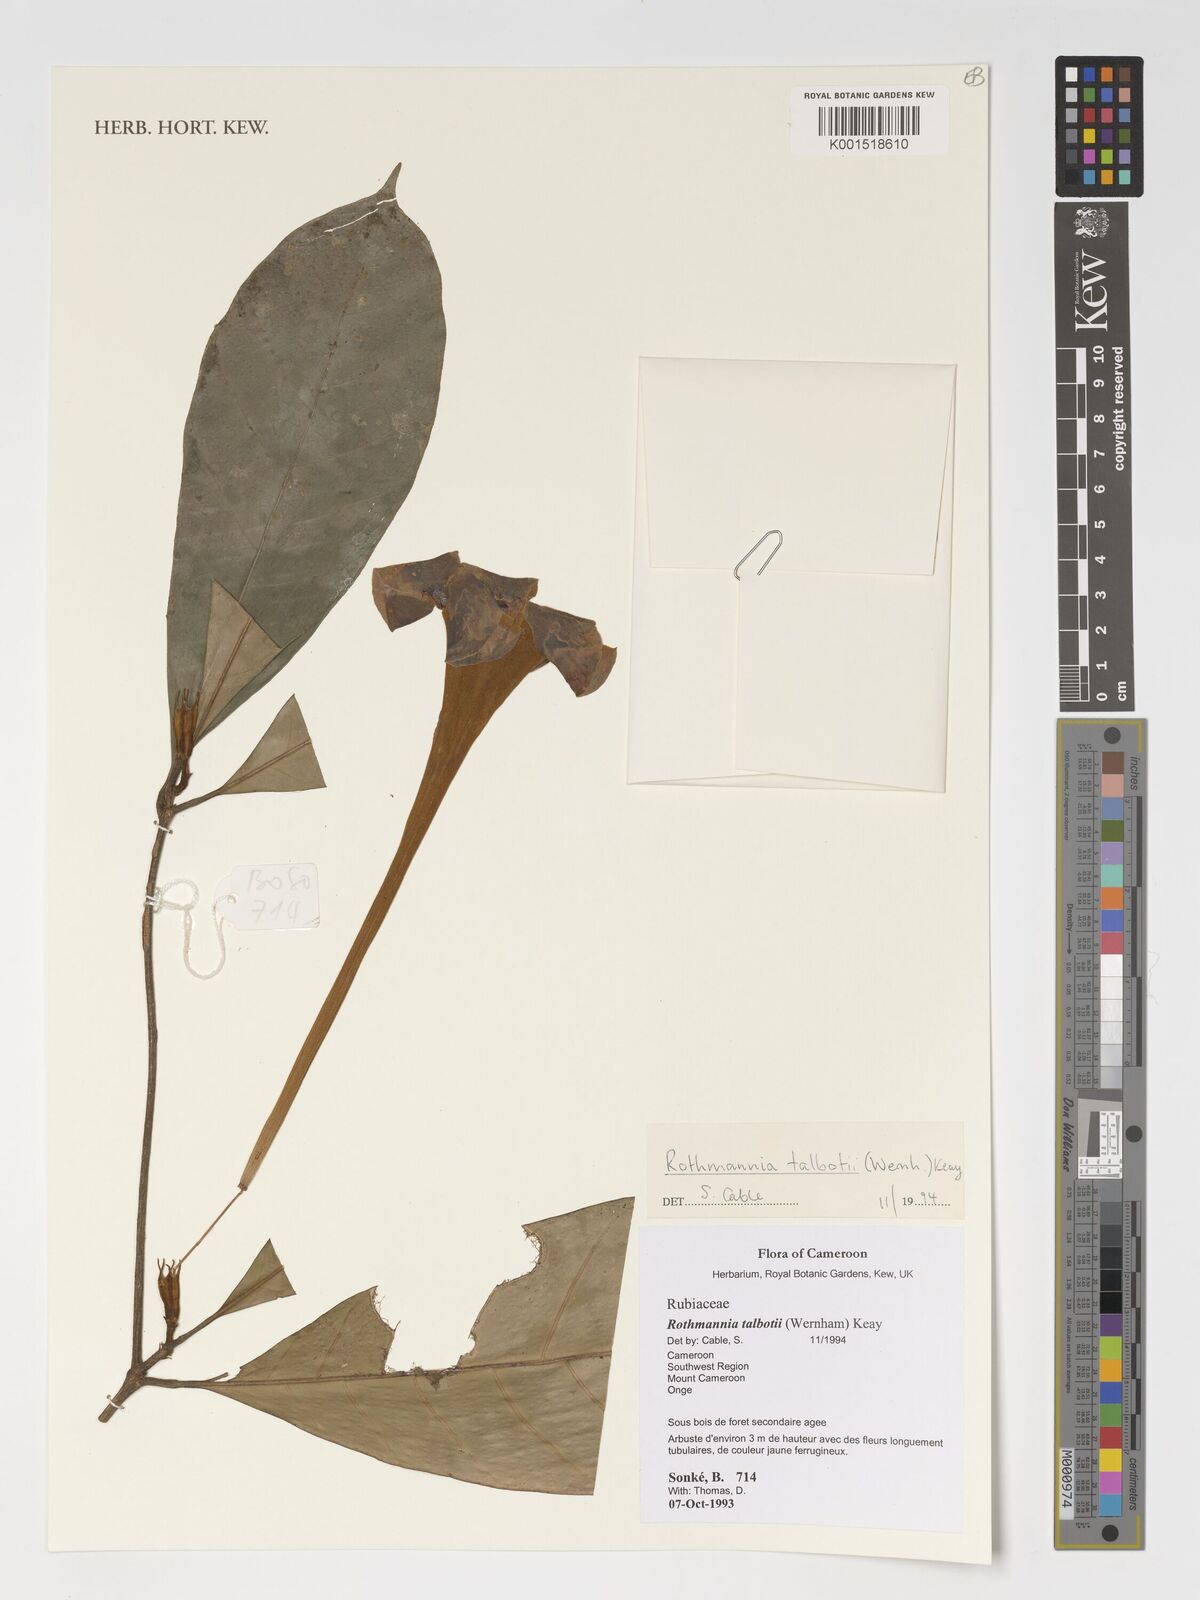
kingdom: Plantae
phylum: Tracheophyta
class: Magnoliopsida
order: Gentianales
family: Rubiaceae
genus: Rothmannia
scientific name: Rothmannia talbotii
